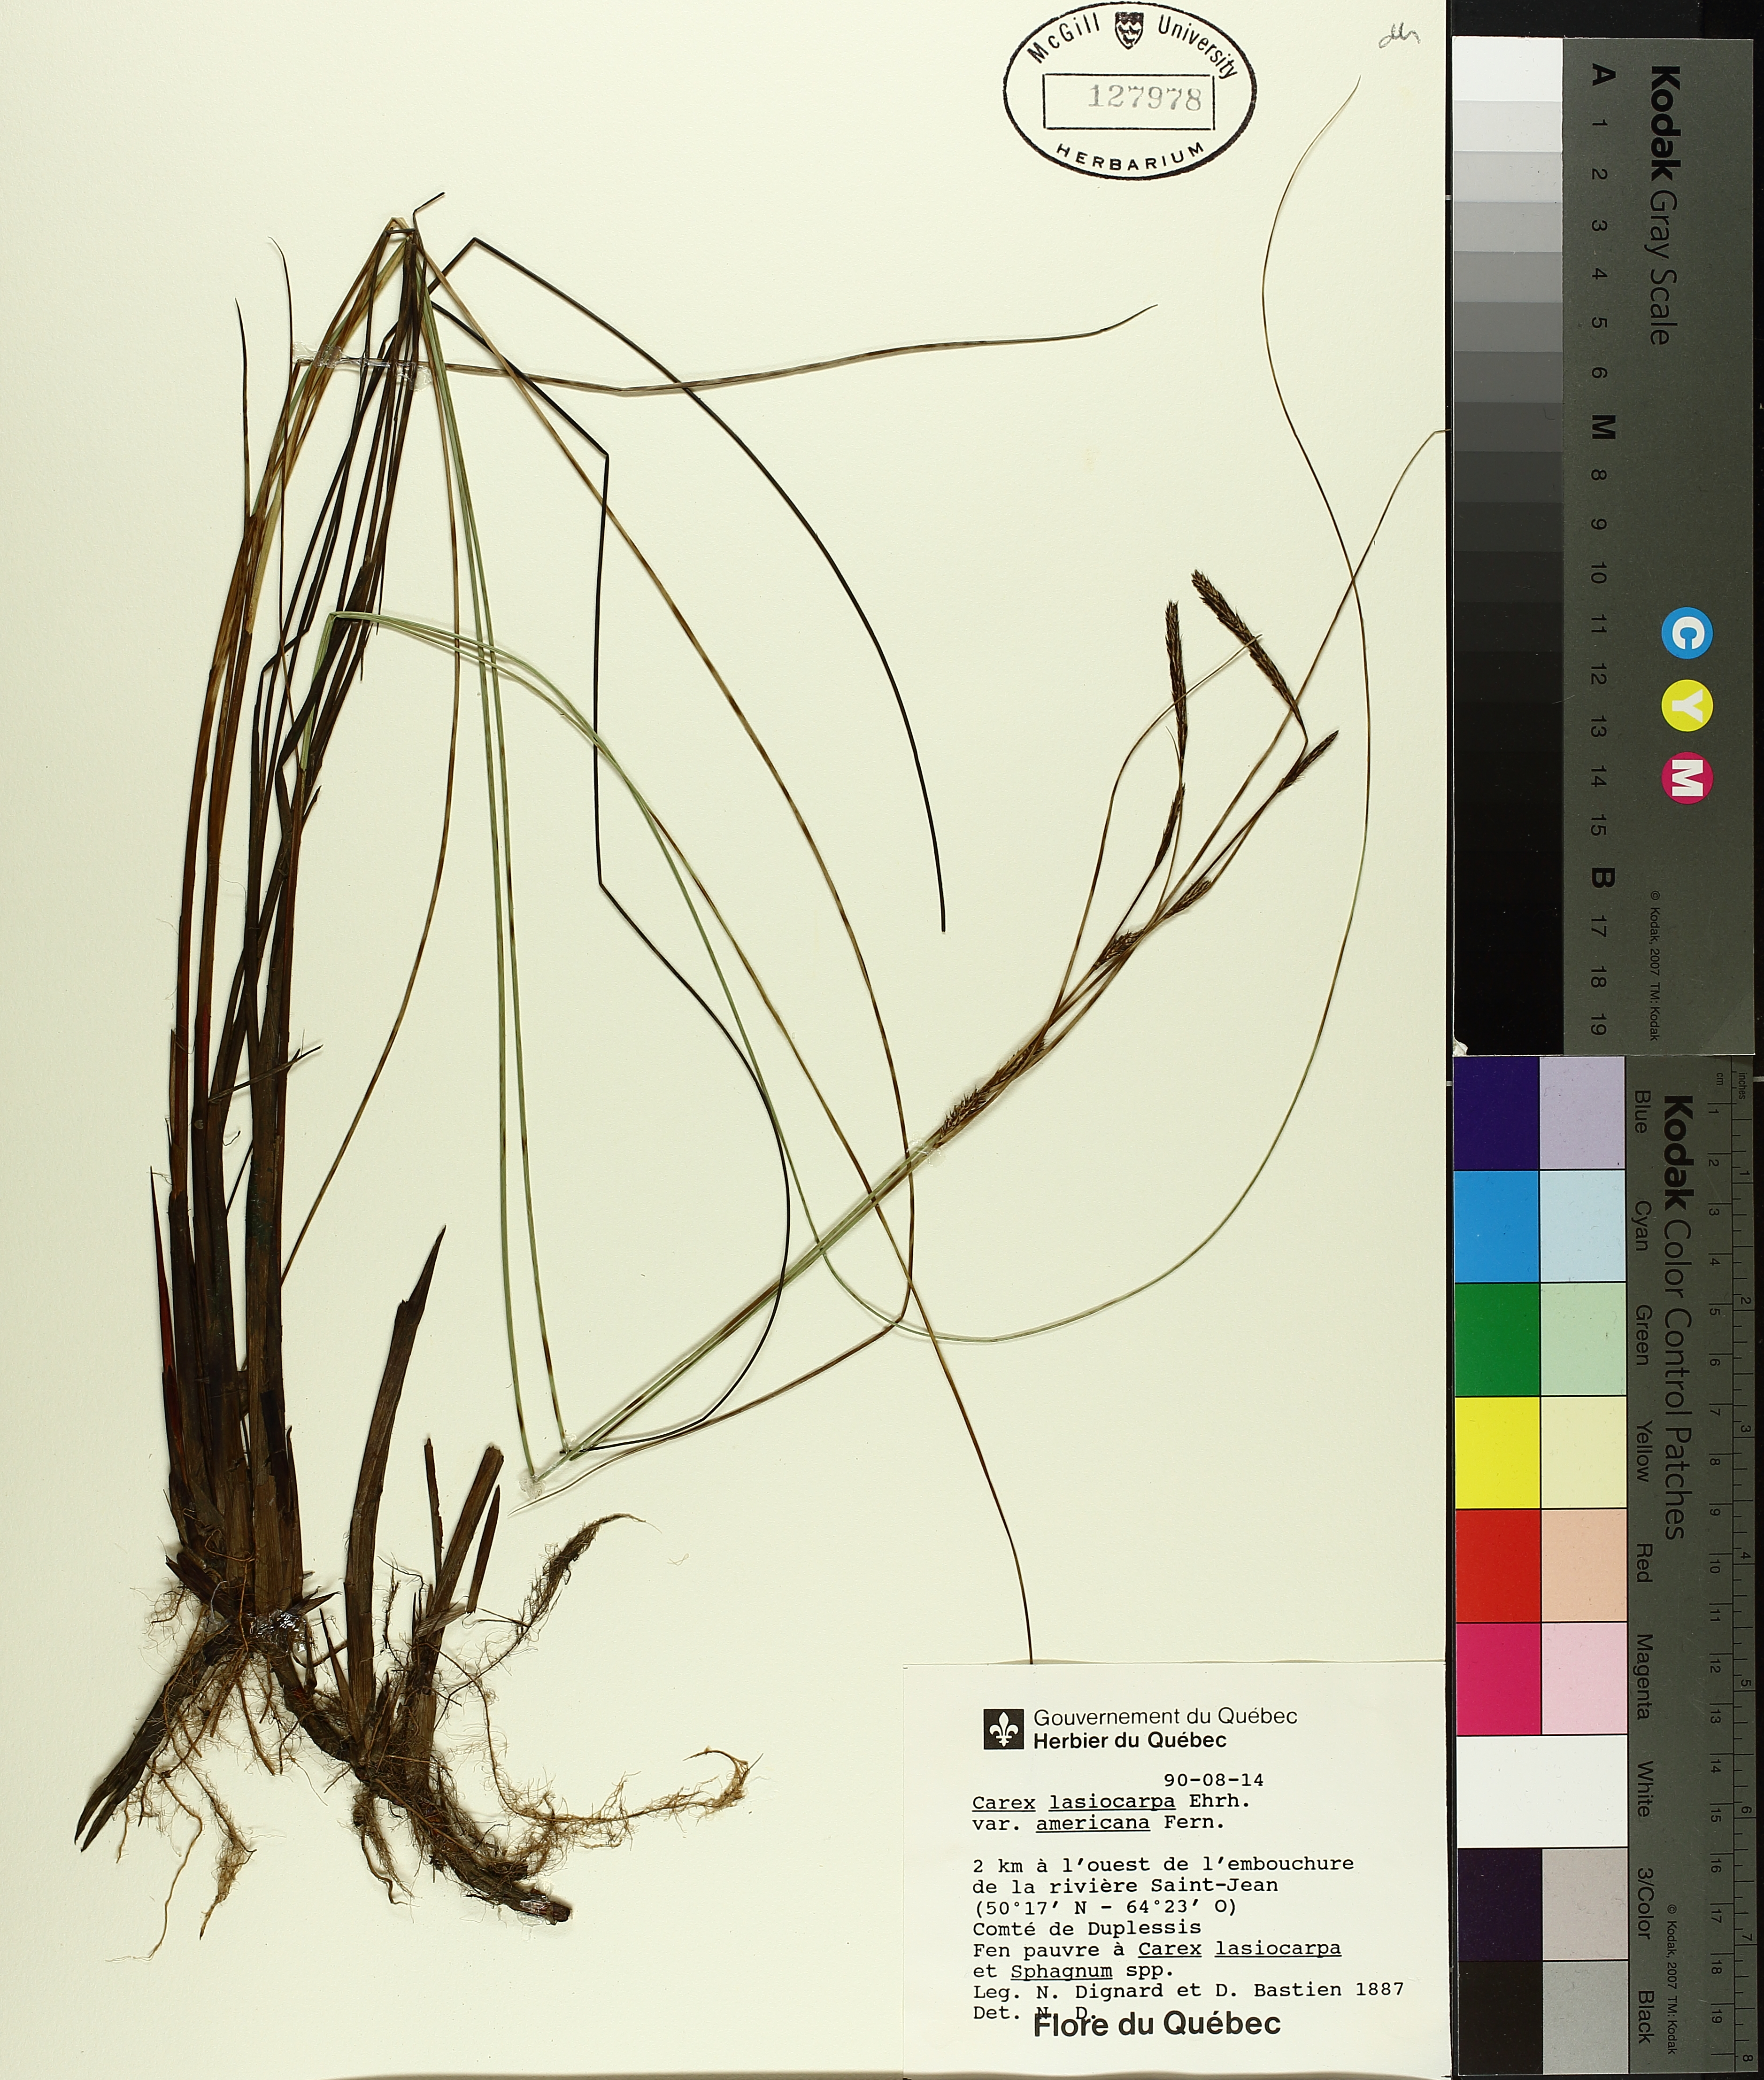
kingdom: Plantae
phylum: Tracheophyta
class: Liliopsida
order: Poales
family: Cyperaceae
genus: Carex
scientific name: Carex lasiocarpa
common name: Slender sedge
